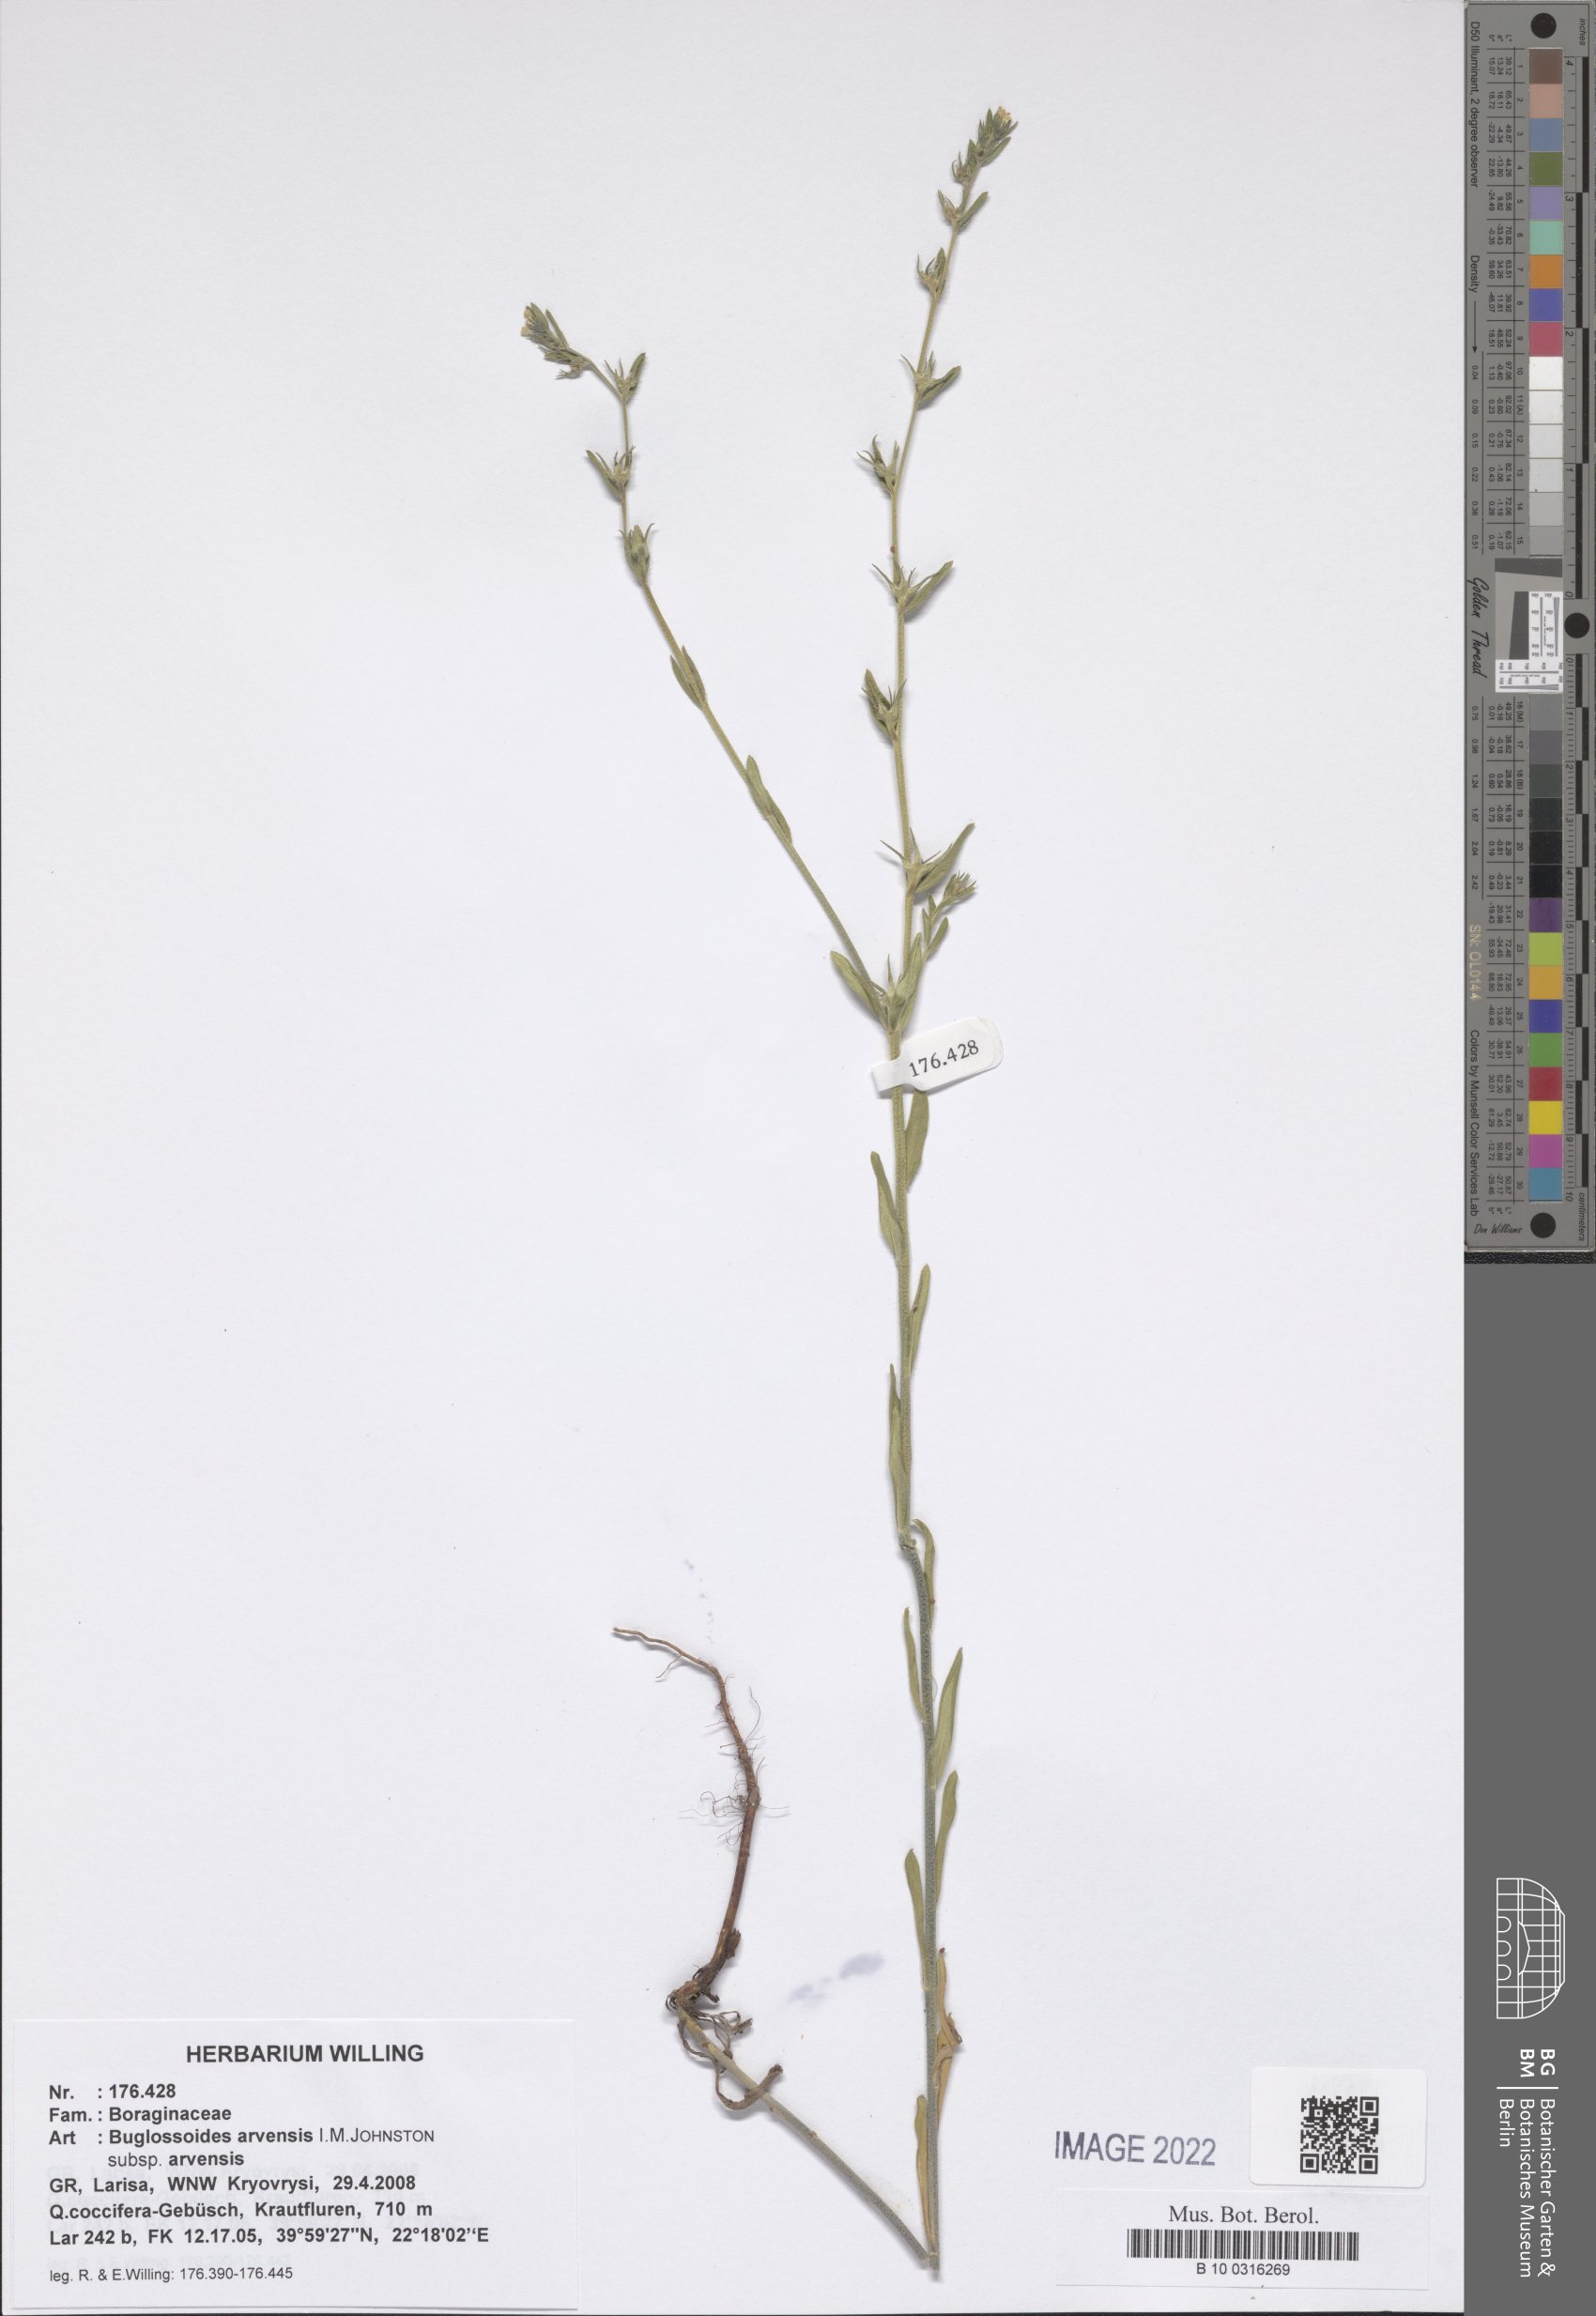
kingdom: Plantae
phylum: Tracheophyta
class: Magnoliopsida
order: Boraginales
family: Boraginaceae
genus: Buglossoides
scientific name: Buglossoides arvensis
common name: Corn gromwell
